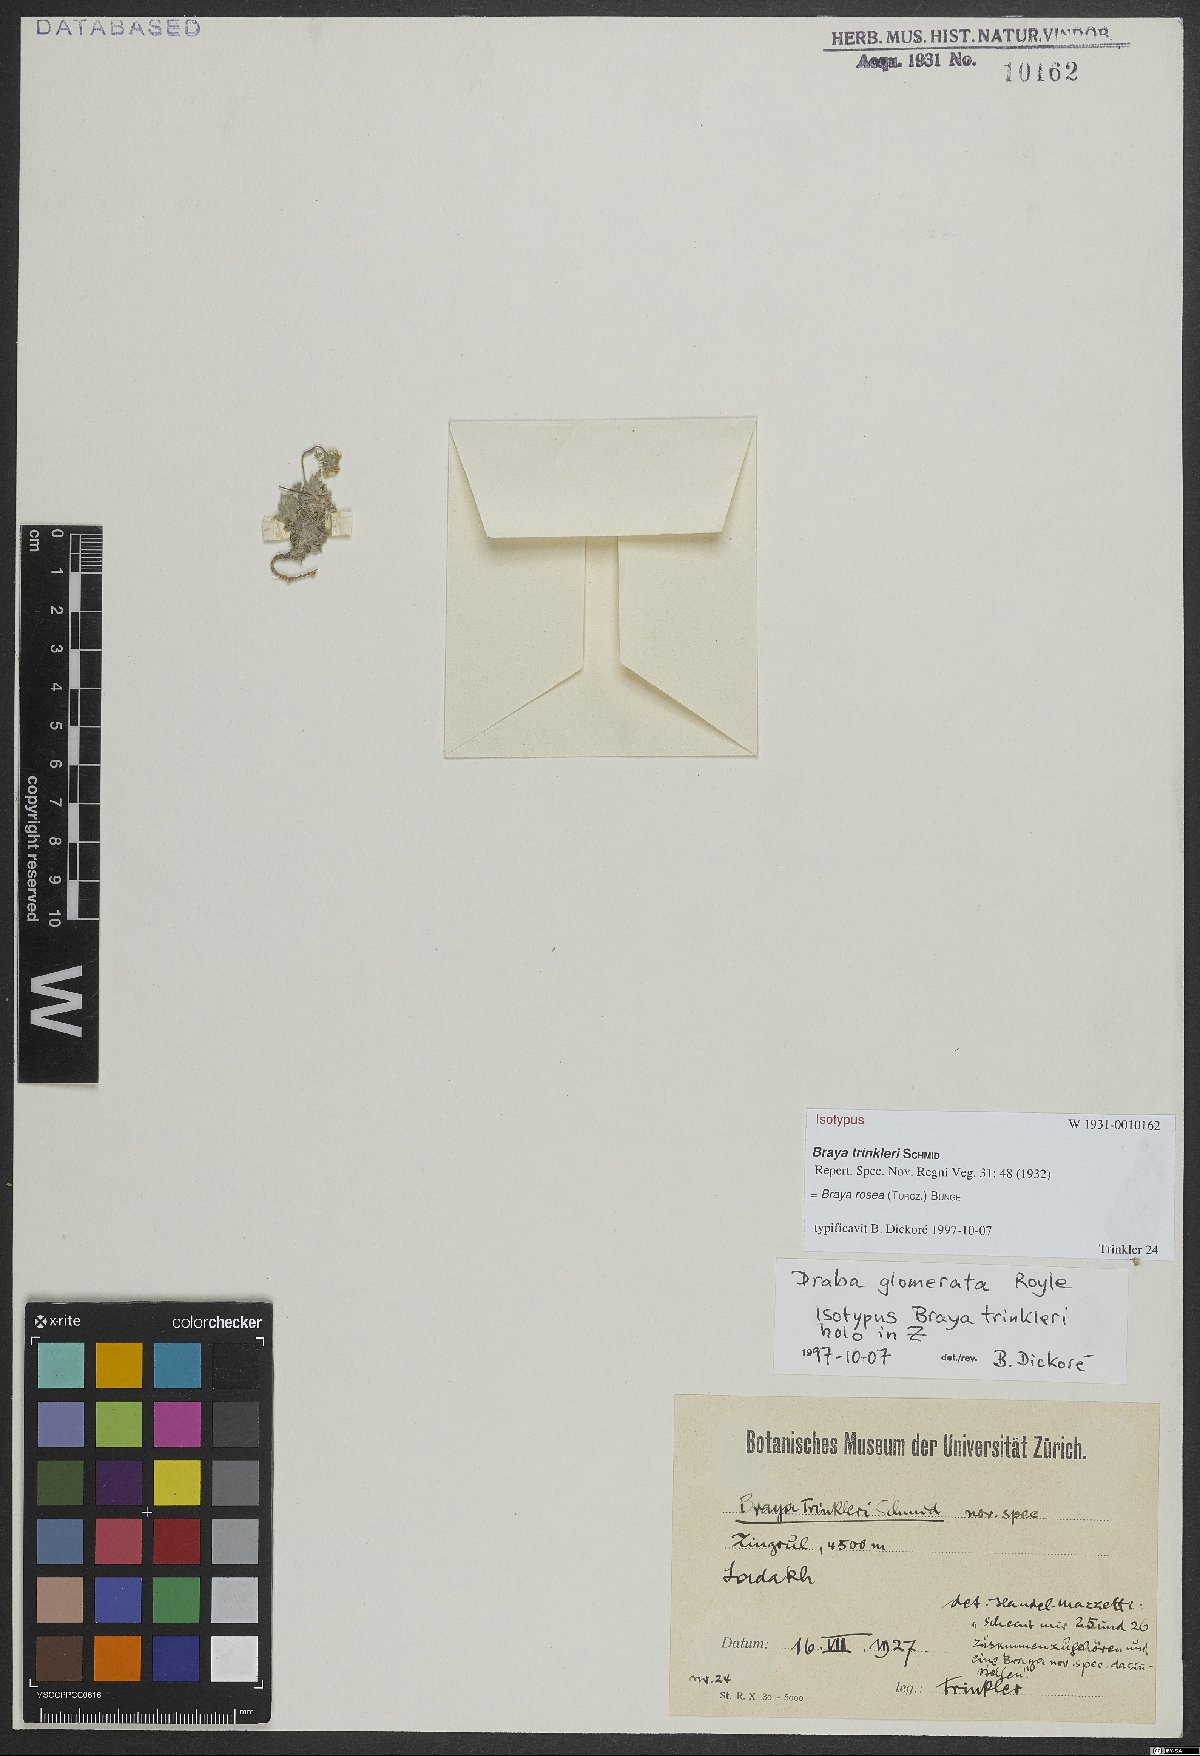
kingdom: Plantae
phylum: Tracheophyta
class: Magnoliopsida
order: Brassicales
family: Brassicaceae
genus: Braya
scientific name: Braya rosea
